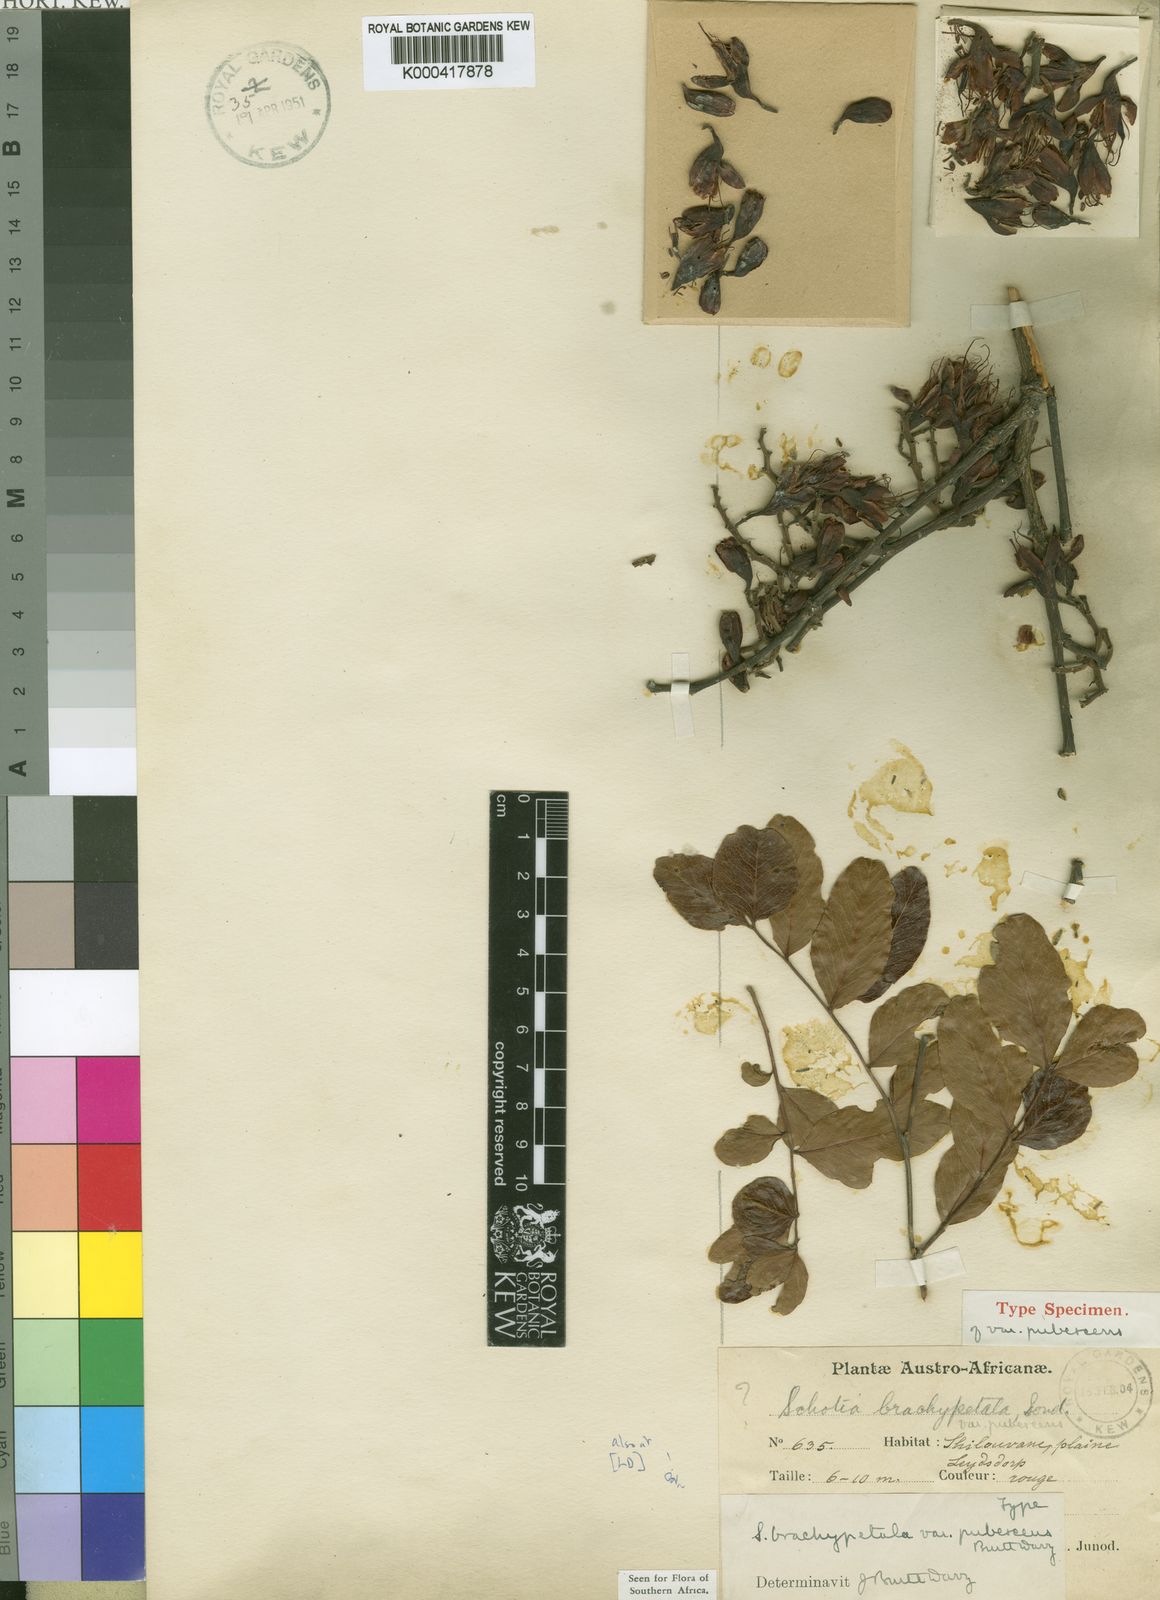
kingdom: Plantae
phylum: Tracheophyta
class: Magnoliopsida
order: Fabales
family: Fabaceae
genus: Schotia
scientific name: Schotia brachypetala
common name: Weeping boer-bean
